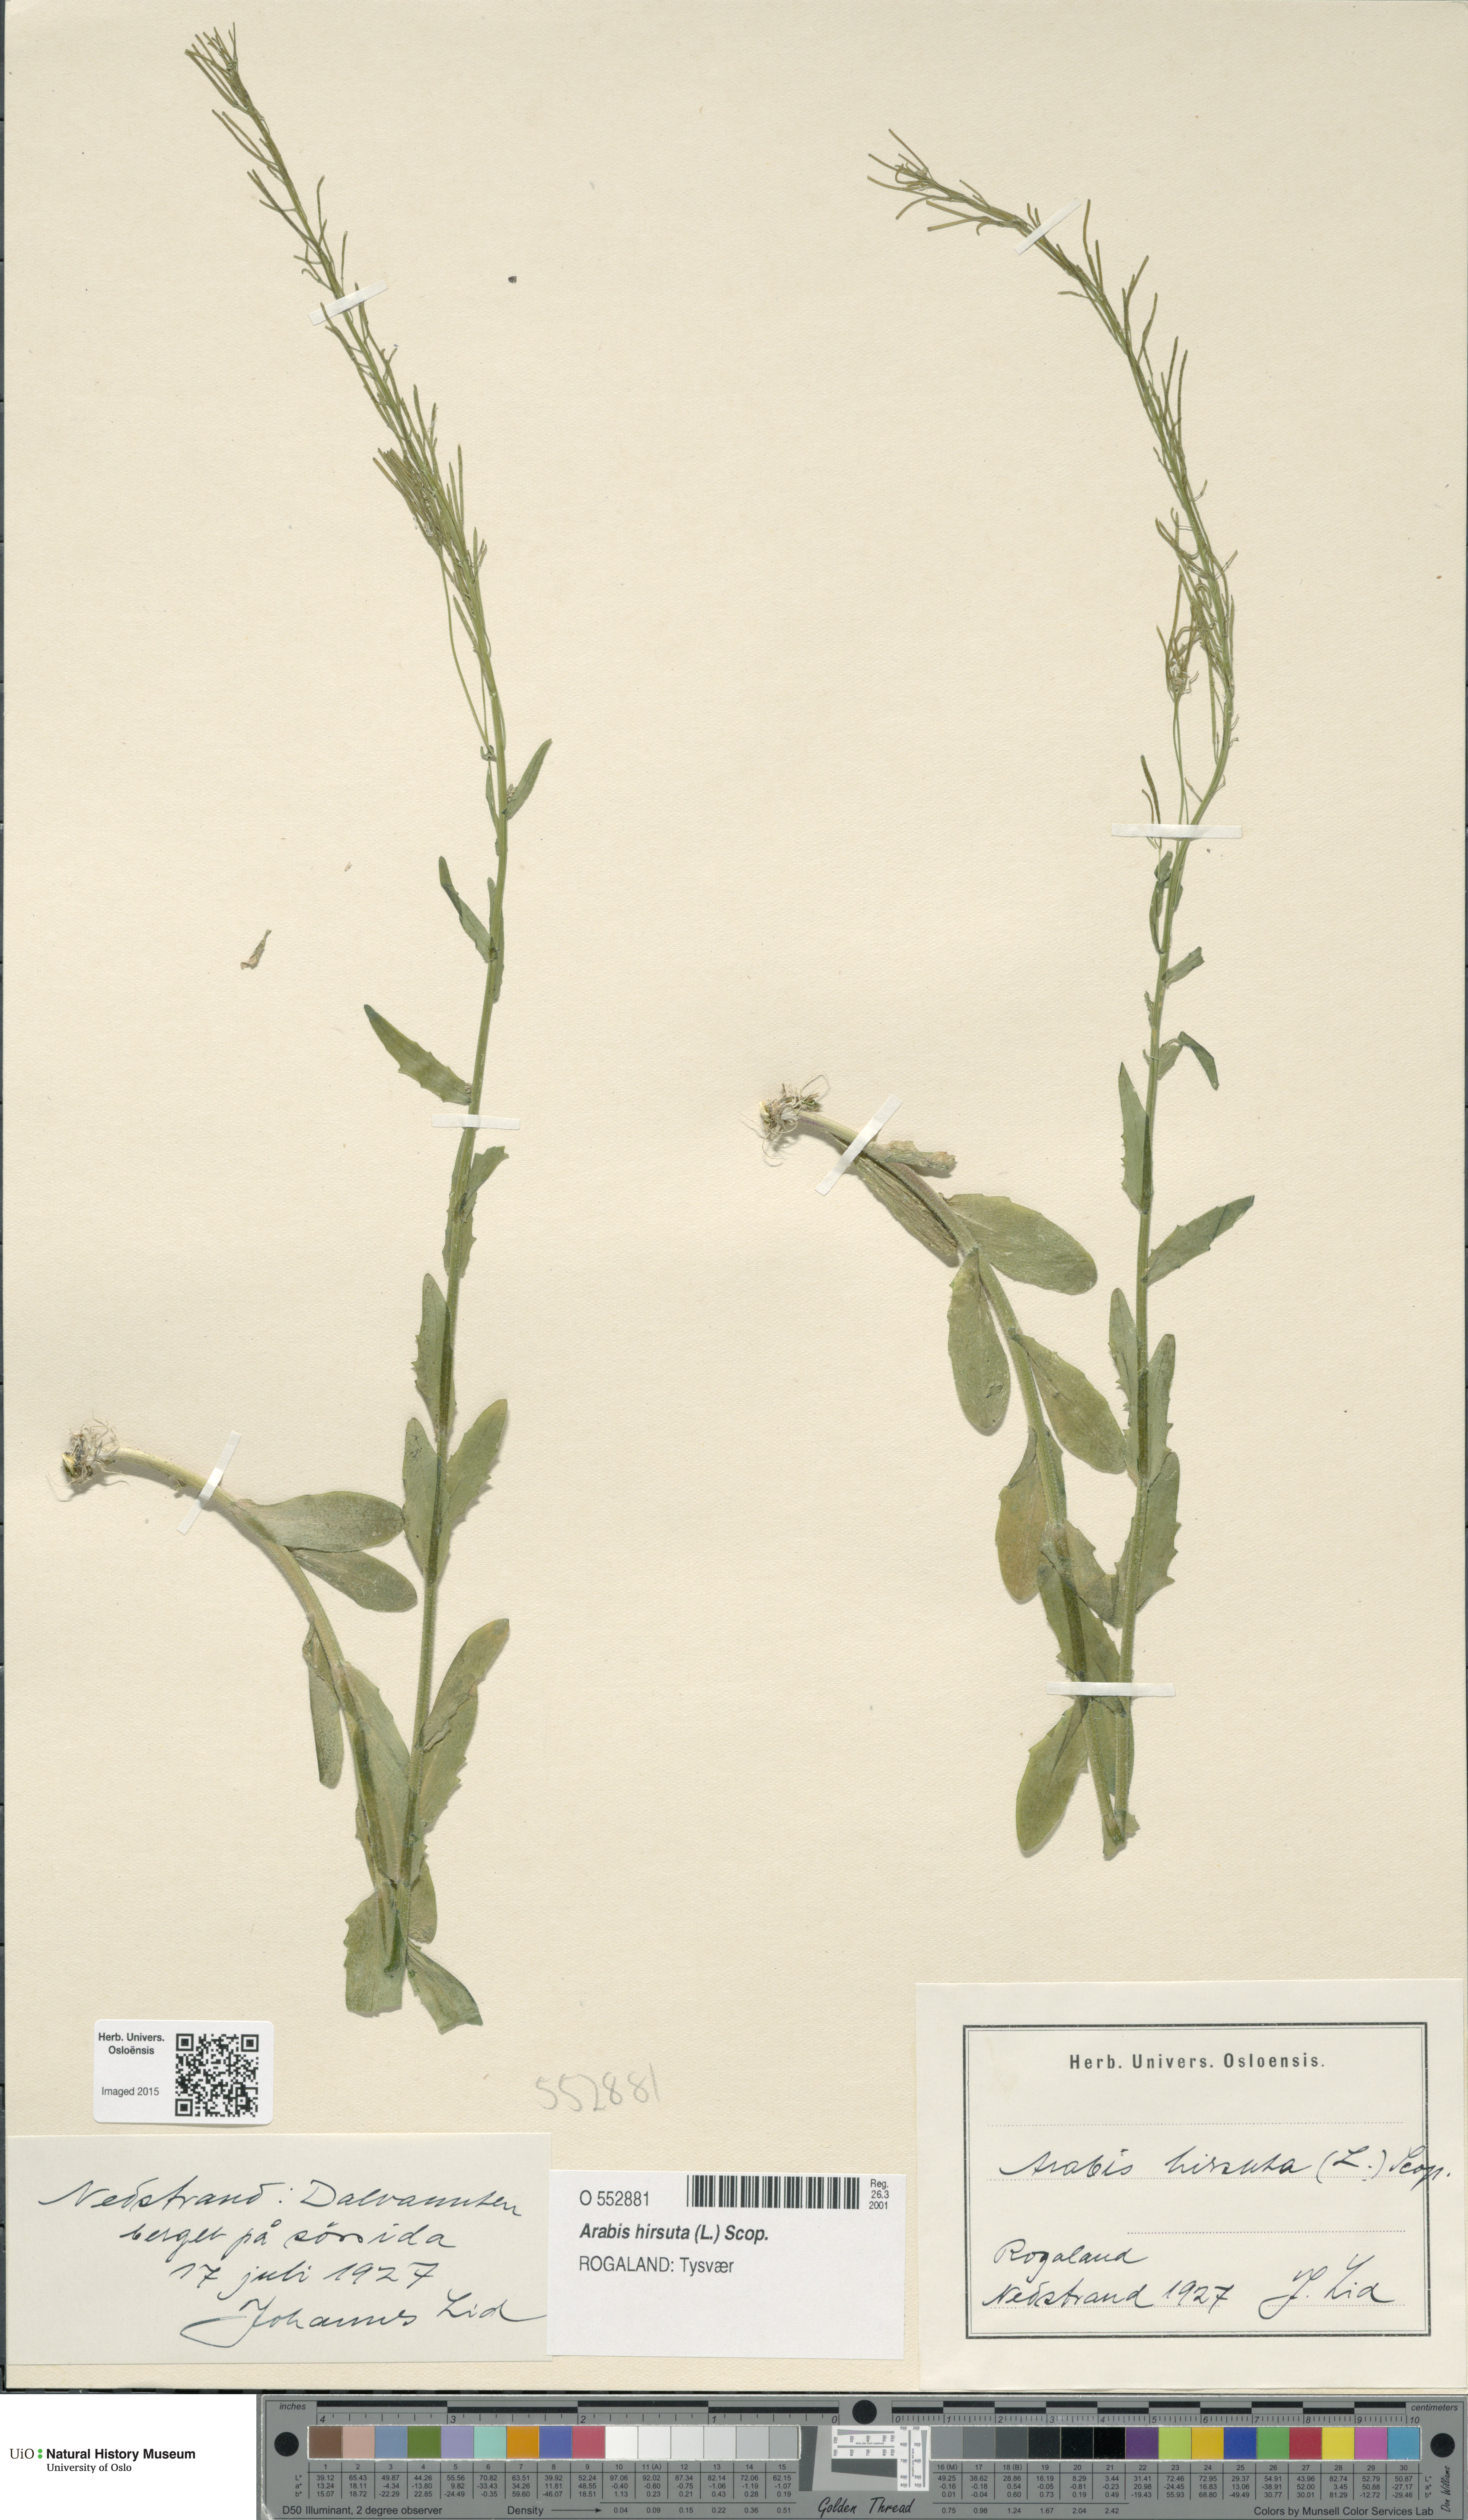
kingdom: Plantae
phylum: Tracheophyta
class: Magnoliopsida
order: Brassicales
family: Brassicaceae
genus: Arabis
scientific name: Arabis hirsuta
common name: Hairy rock-cress
